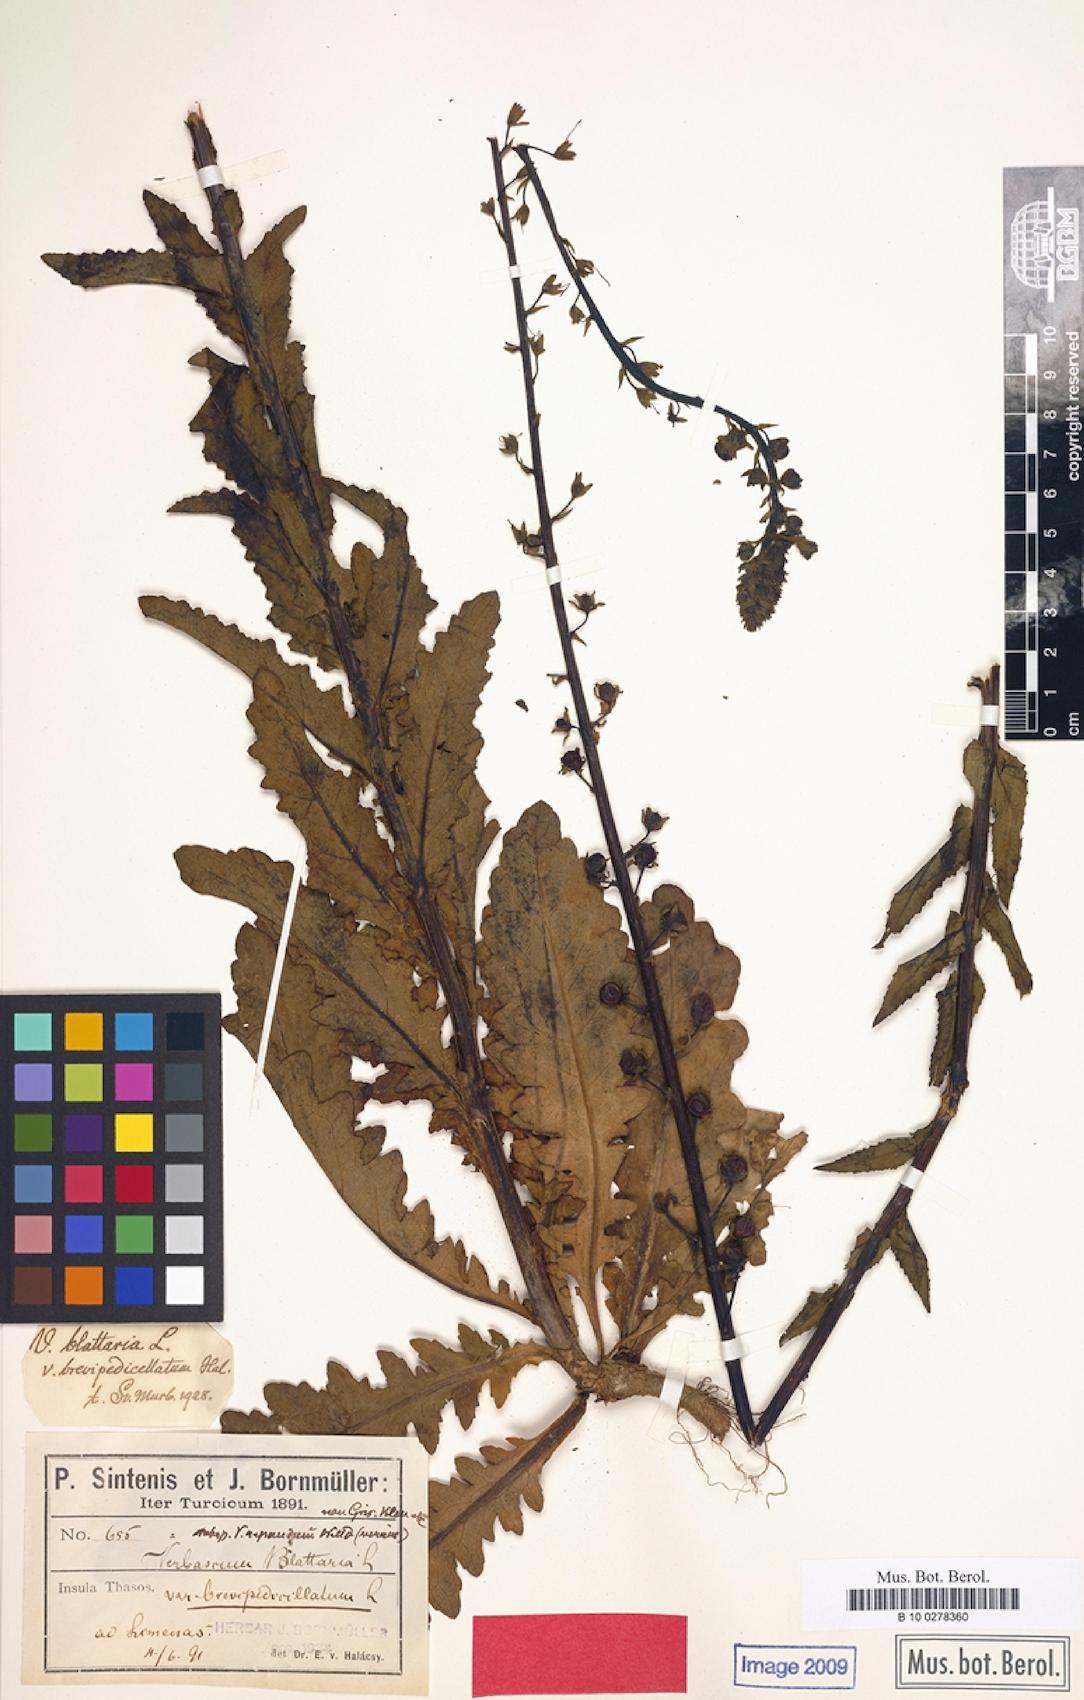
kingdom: Plantae
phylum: Tracheophyta
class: Magnoliopsida
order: Lamiales
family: Scrophulariaceae
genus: Verbascum
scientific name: Verbascum blattaria
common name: Moth mullein
